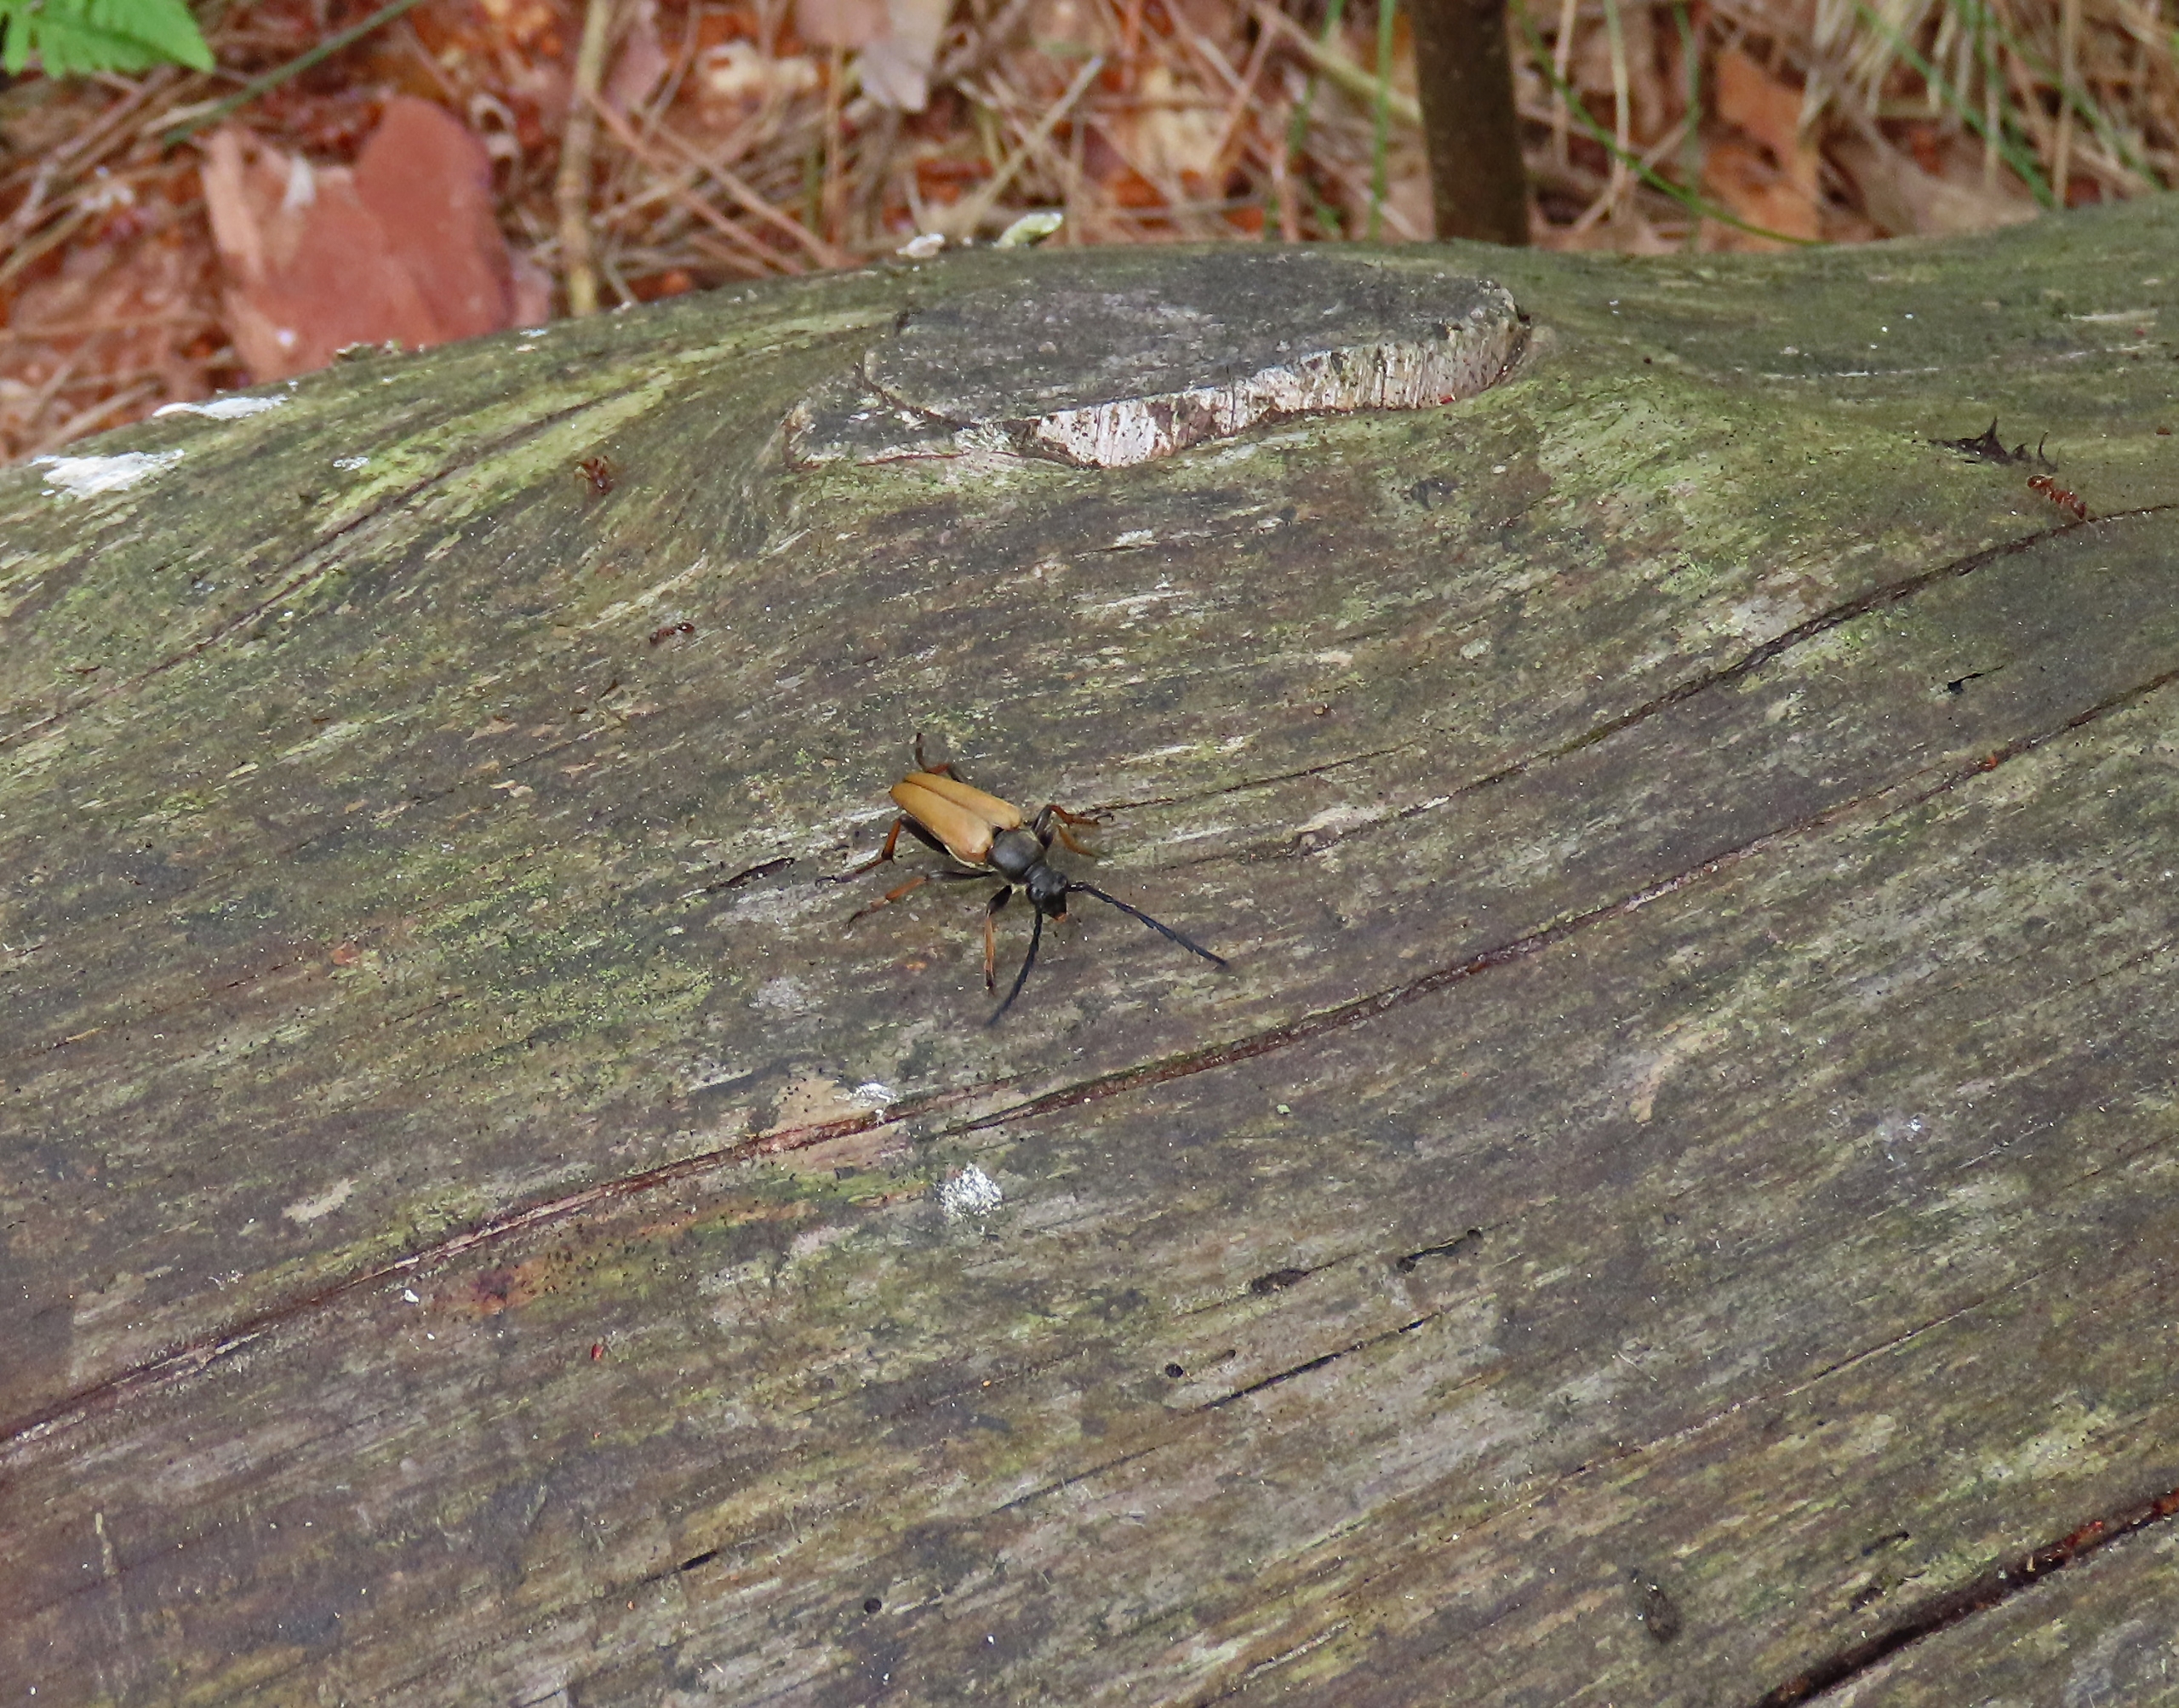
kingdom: Animalia
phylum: Arthropoda
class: Insecta
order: Coleoptera
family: Cerambycidae
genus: Stictoleptura
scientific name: Stictoleptura rubra
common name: Rød blomsterbuk
